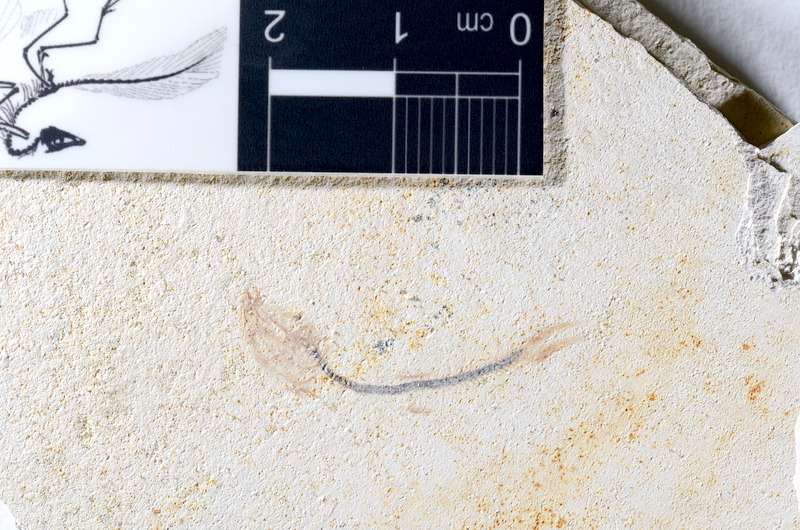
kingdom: Animalia
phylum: Chordata
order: Salmoniformes
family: Orthogonikleithridae
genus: Orthogonikleithrus
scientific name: Orthogonikleithrus hoelli
